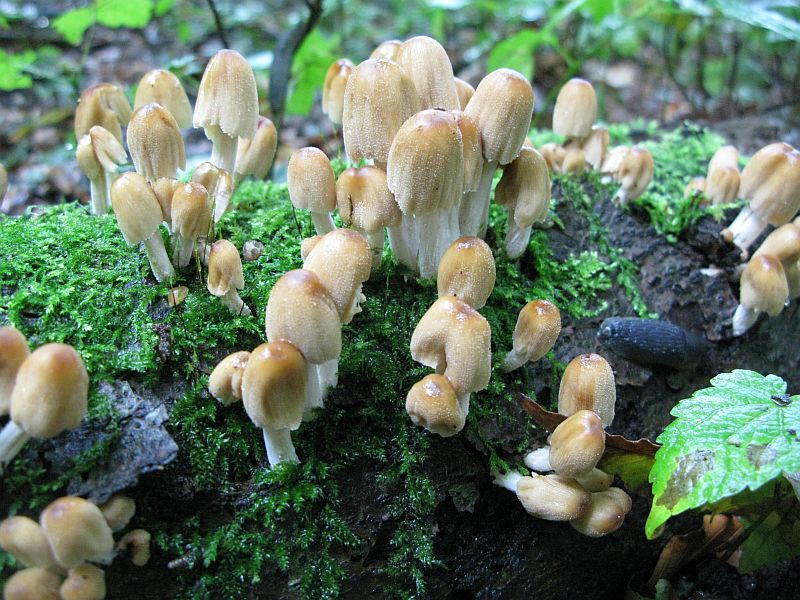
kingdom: Fungi
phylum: Basidiomycota
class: Agaricomycetes
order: Agaricales
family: Psathyrellaceae
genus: Coprinellus
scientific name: Coprinellus micaceus
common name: glimmer-blækhat
